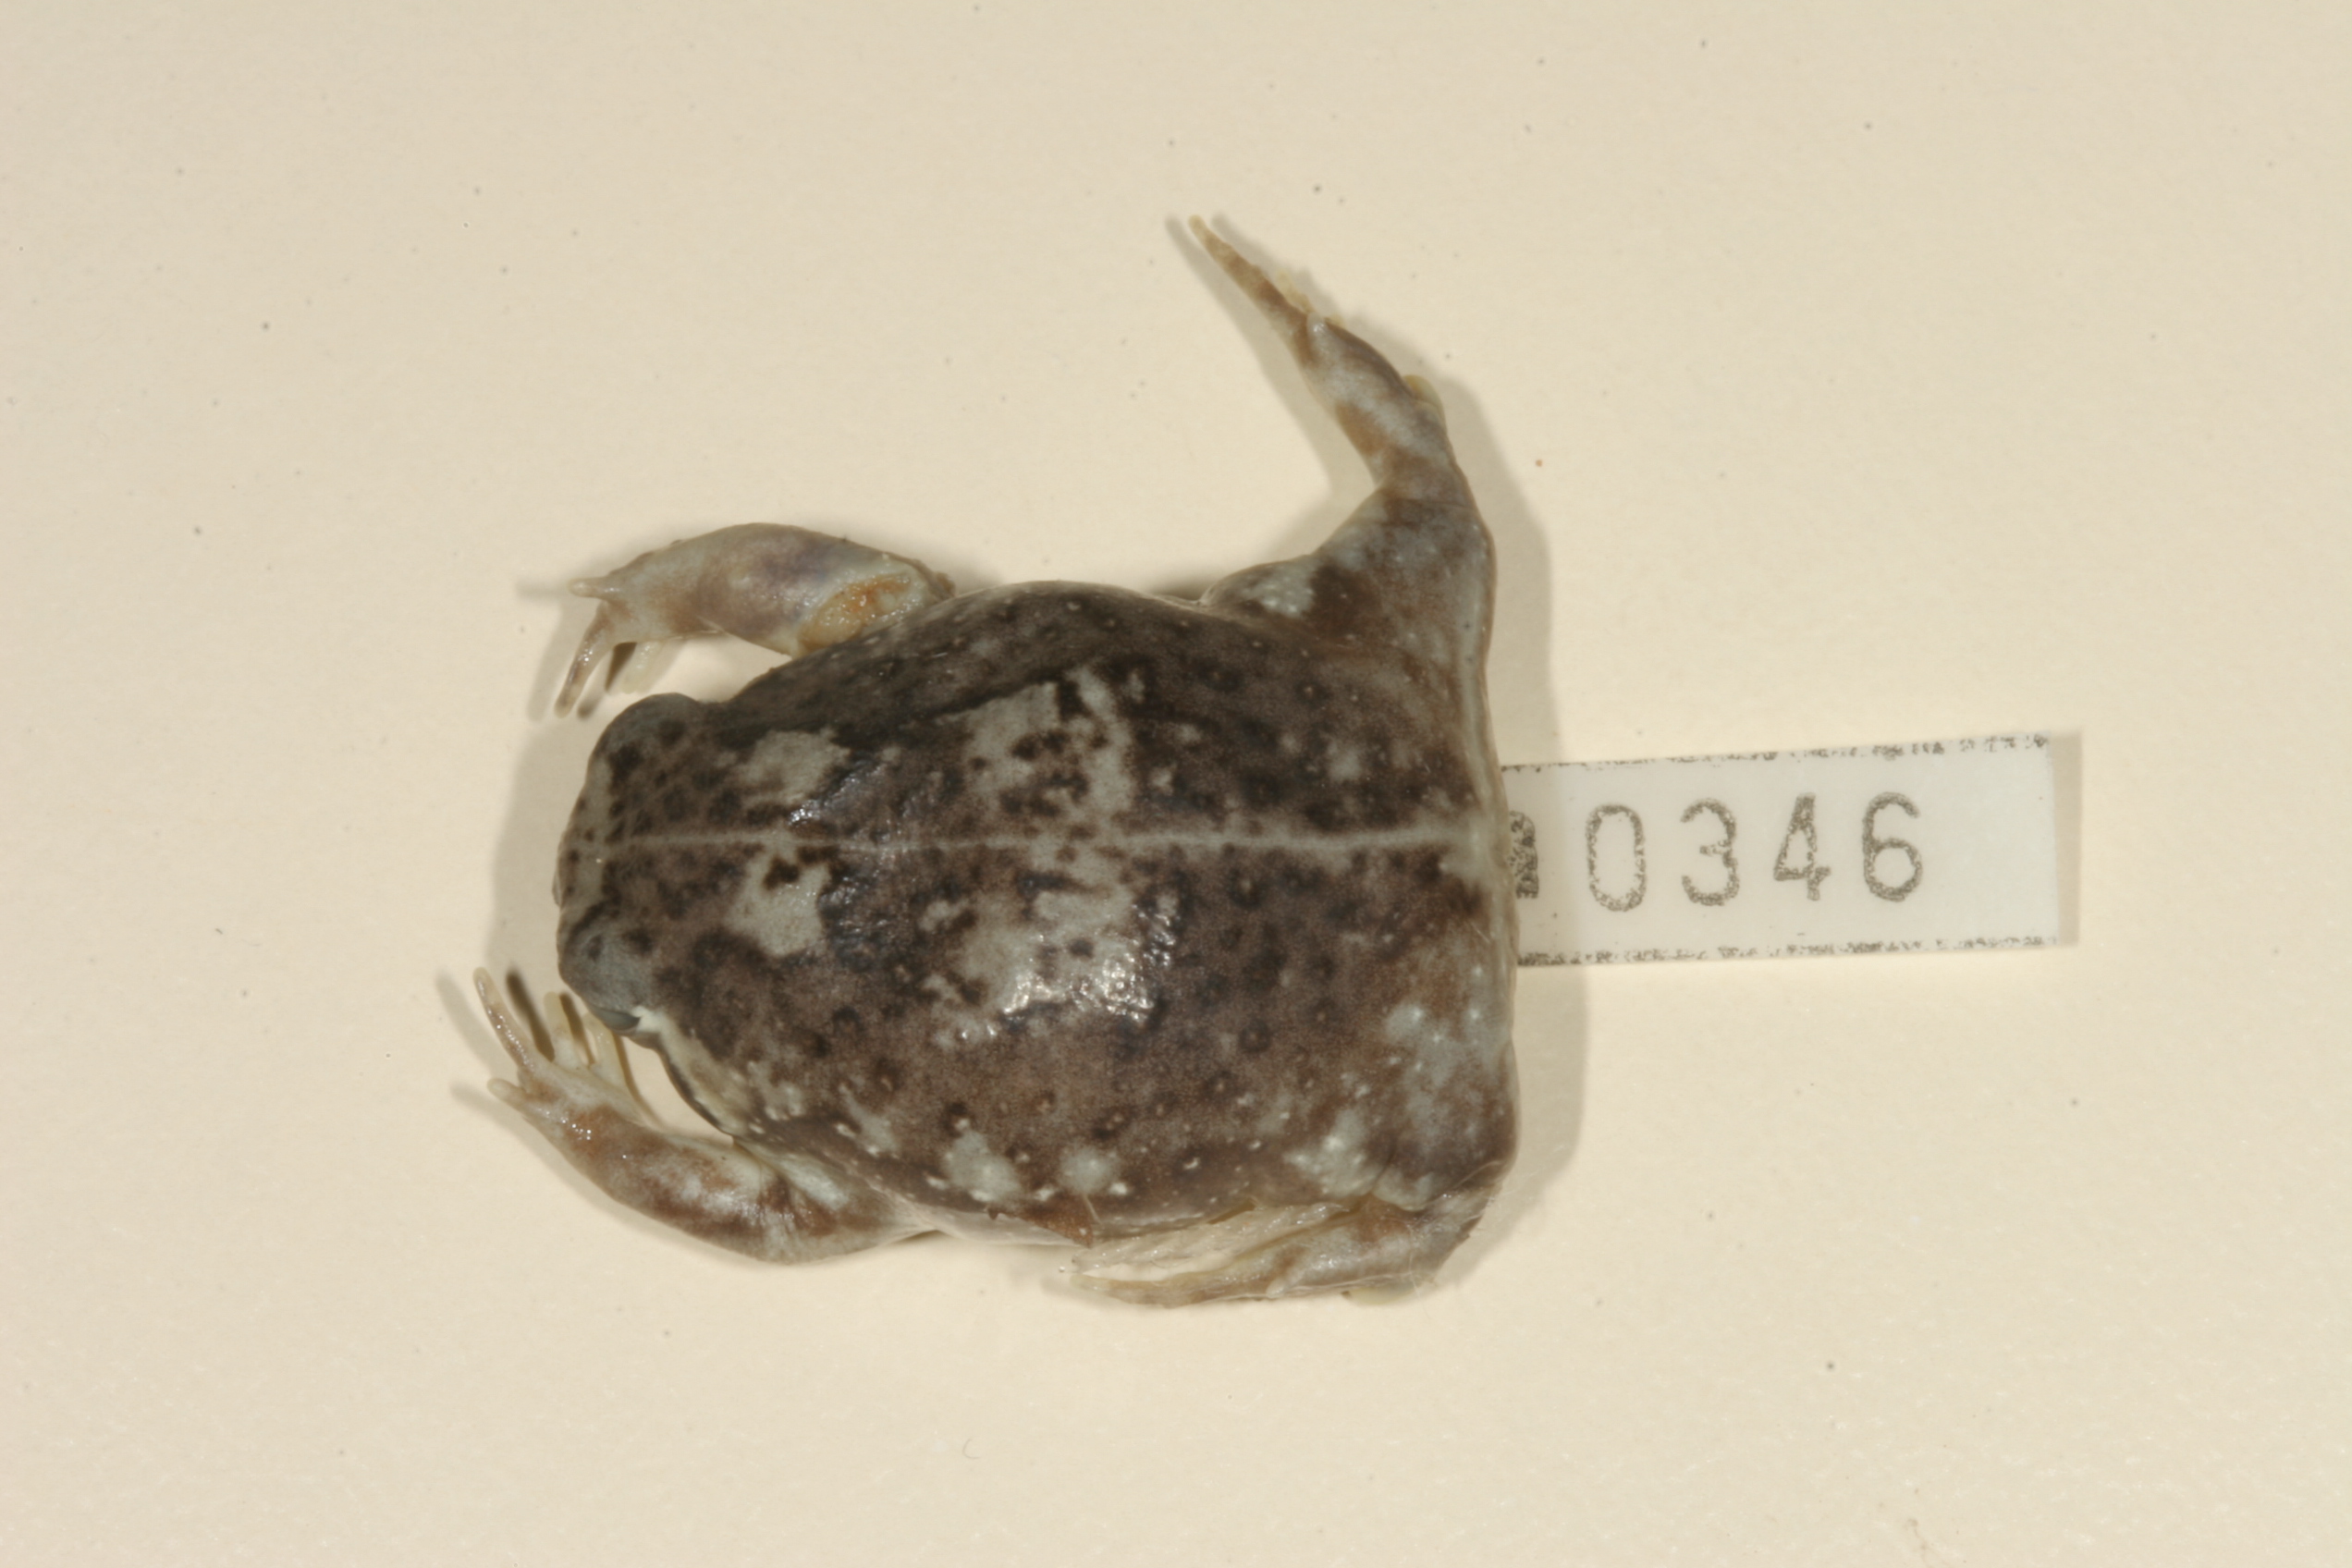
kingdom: Animalia
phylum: Chordata
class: Amphibia
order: Anura
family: Brevicipitidae
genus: Breviceps
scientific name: Breviceps adspersus
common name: Common rain frog
